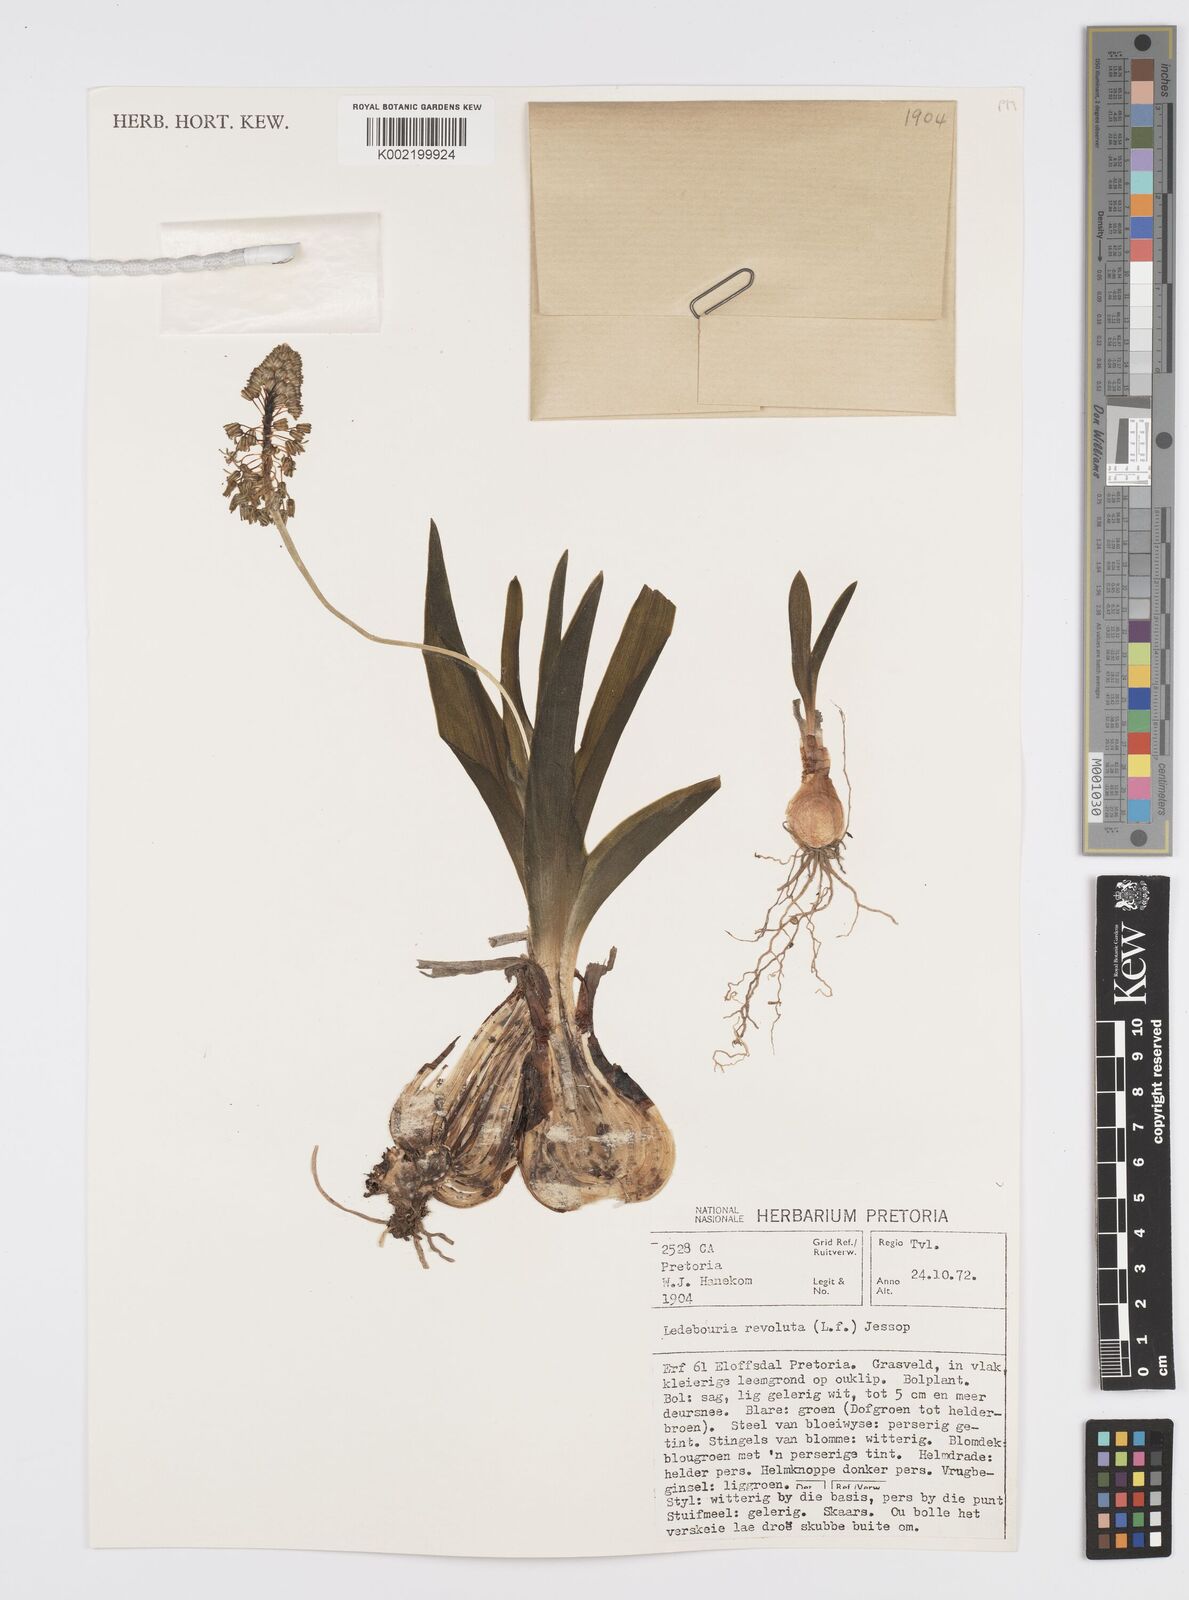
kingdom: Plantae
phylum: Tracheophyta
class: Liliopsida
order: Asparagales
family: Asparagaceae
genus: Ledebouria
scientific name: Ledebouria revoluta
